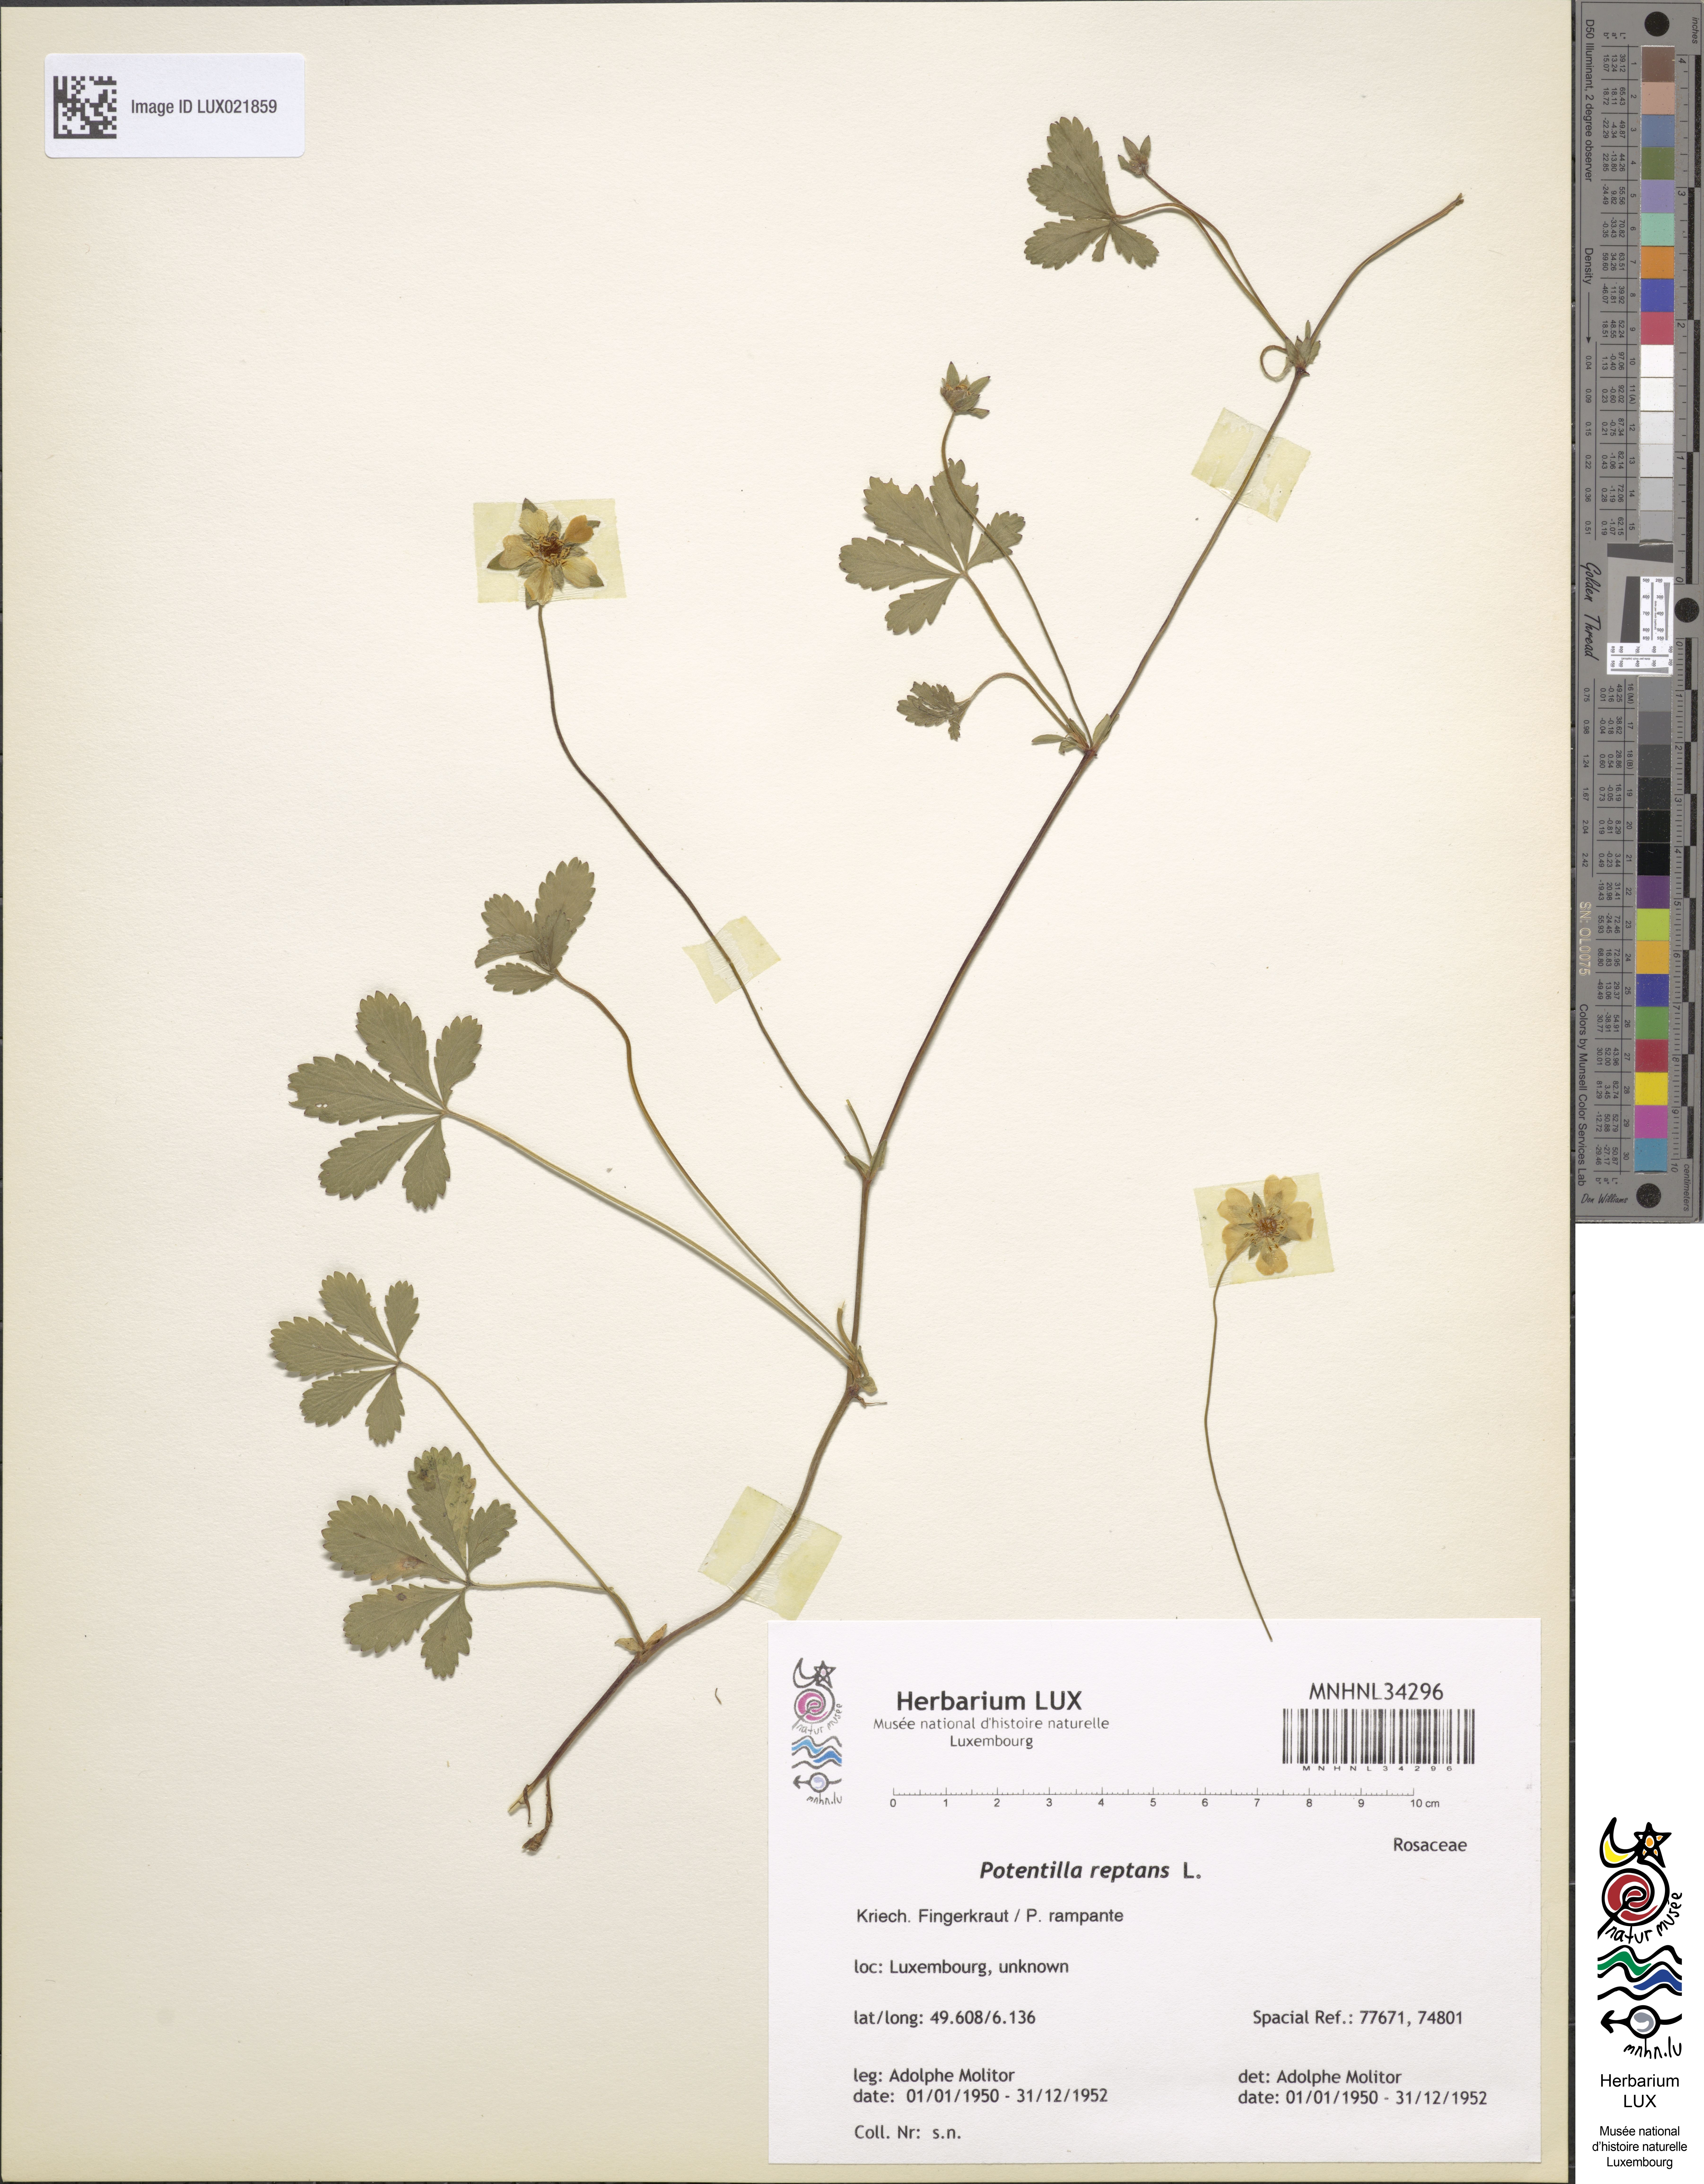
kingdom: Plantae
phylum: Tracheophyta
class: Magnoliopsida
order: Rosales
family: Rosaceae
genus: Potentilla
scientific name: Potentilla reptans
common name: Creeping cinquefoil
